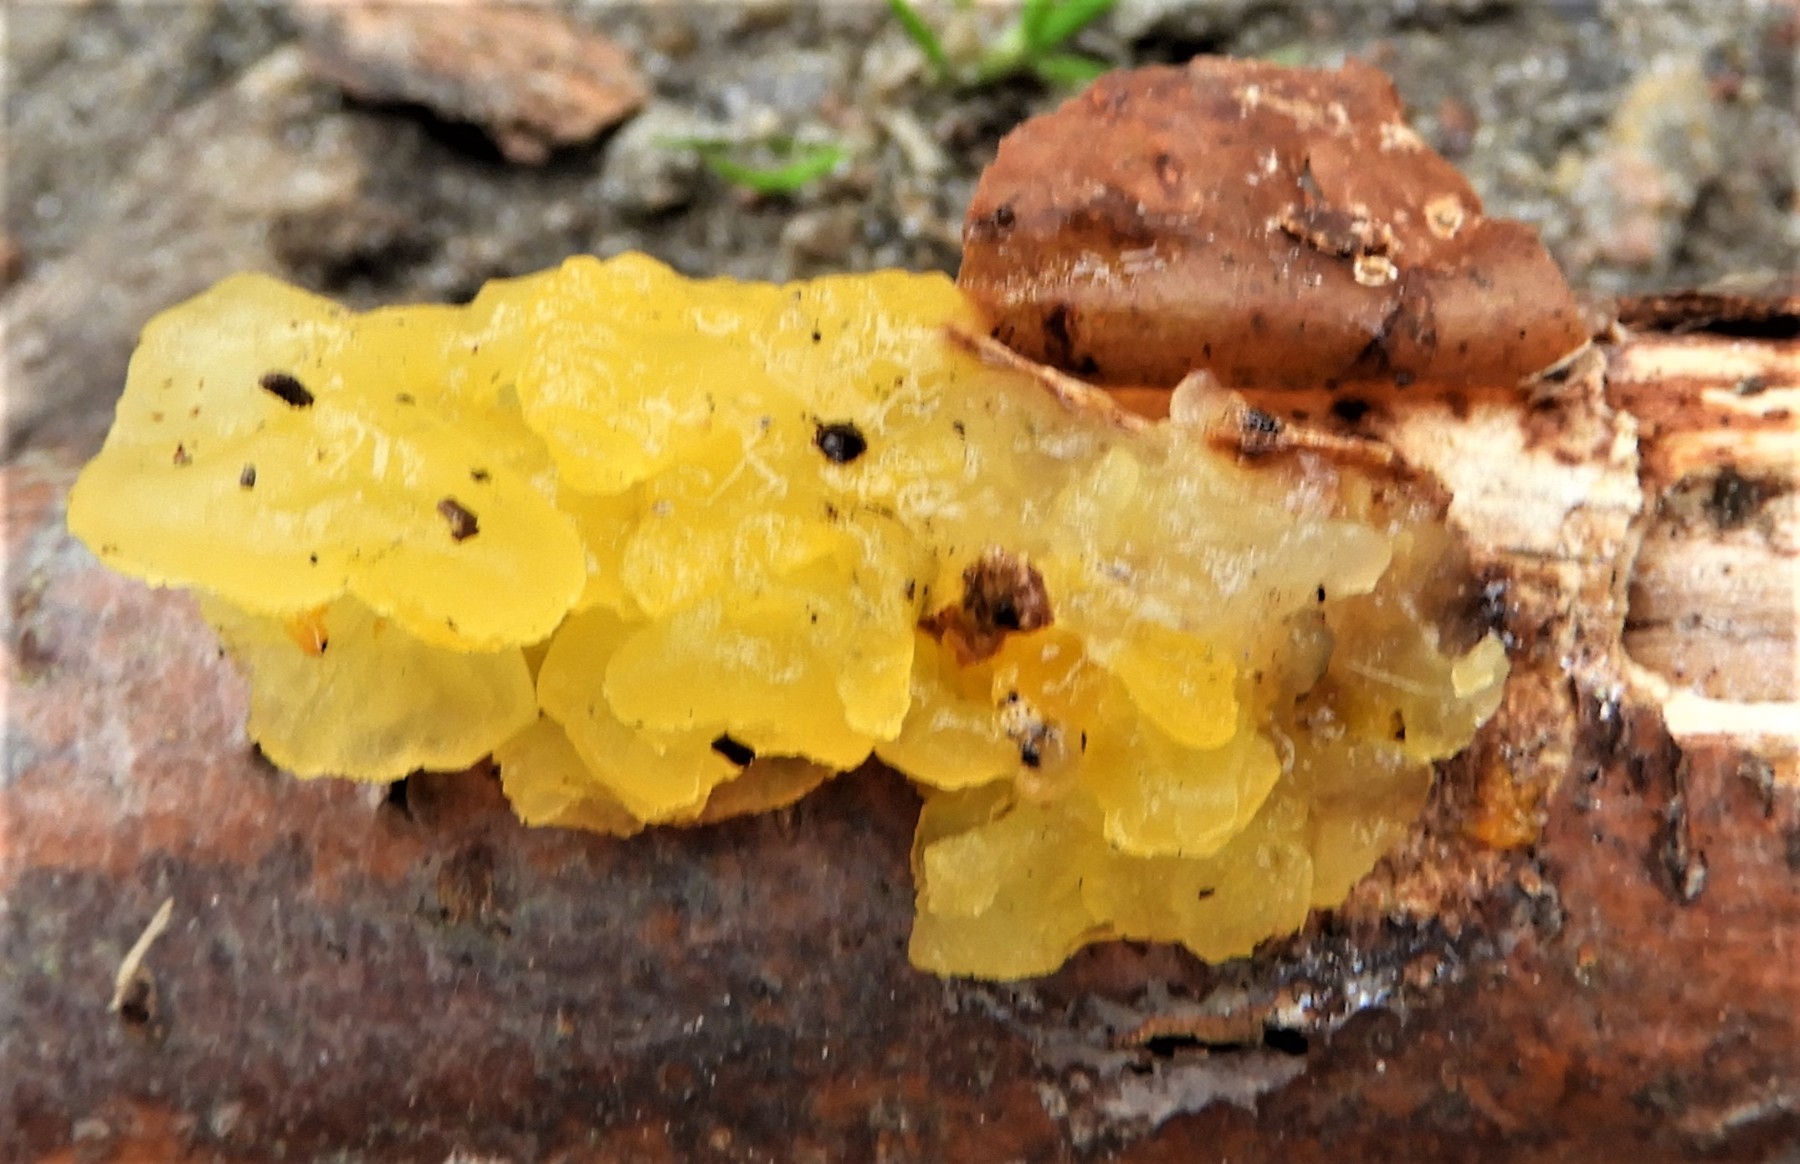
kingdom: Fungi
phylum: Basidiomycota
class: Tremellomycetes
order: Tremellales
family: Tremellaceae
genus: Tremella
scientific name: Tremella mesenterica
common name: gul bævresvamp
